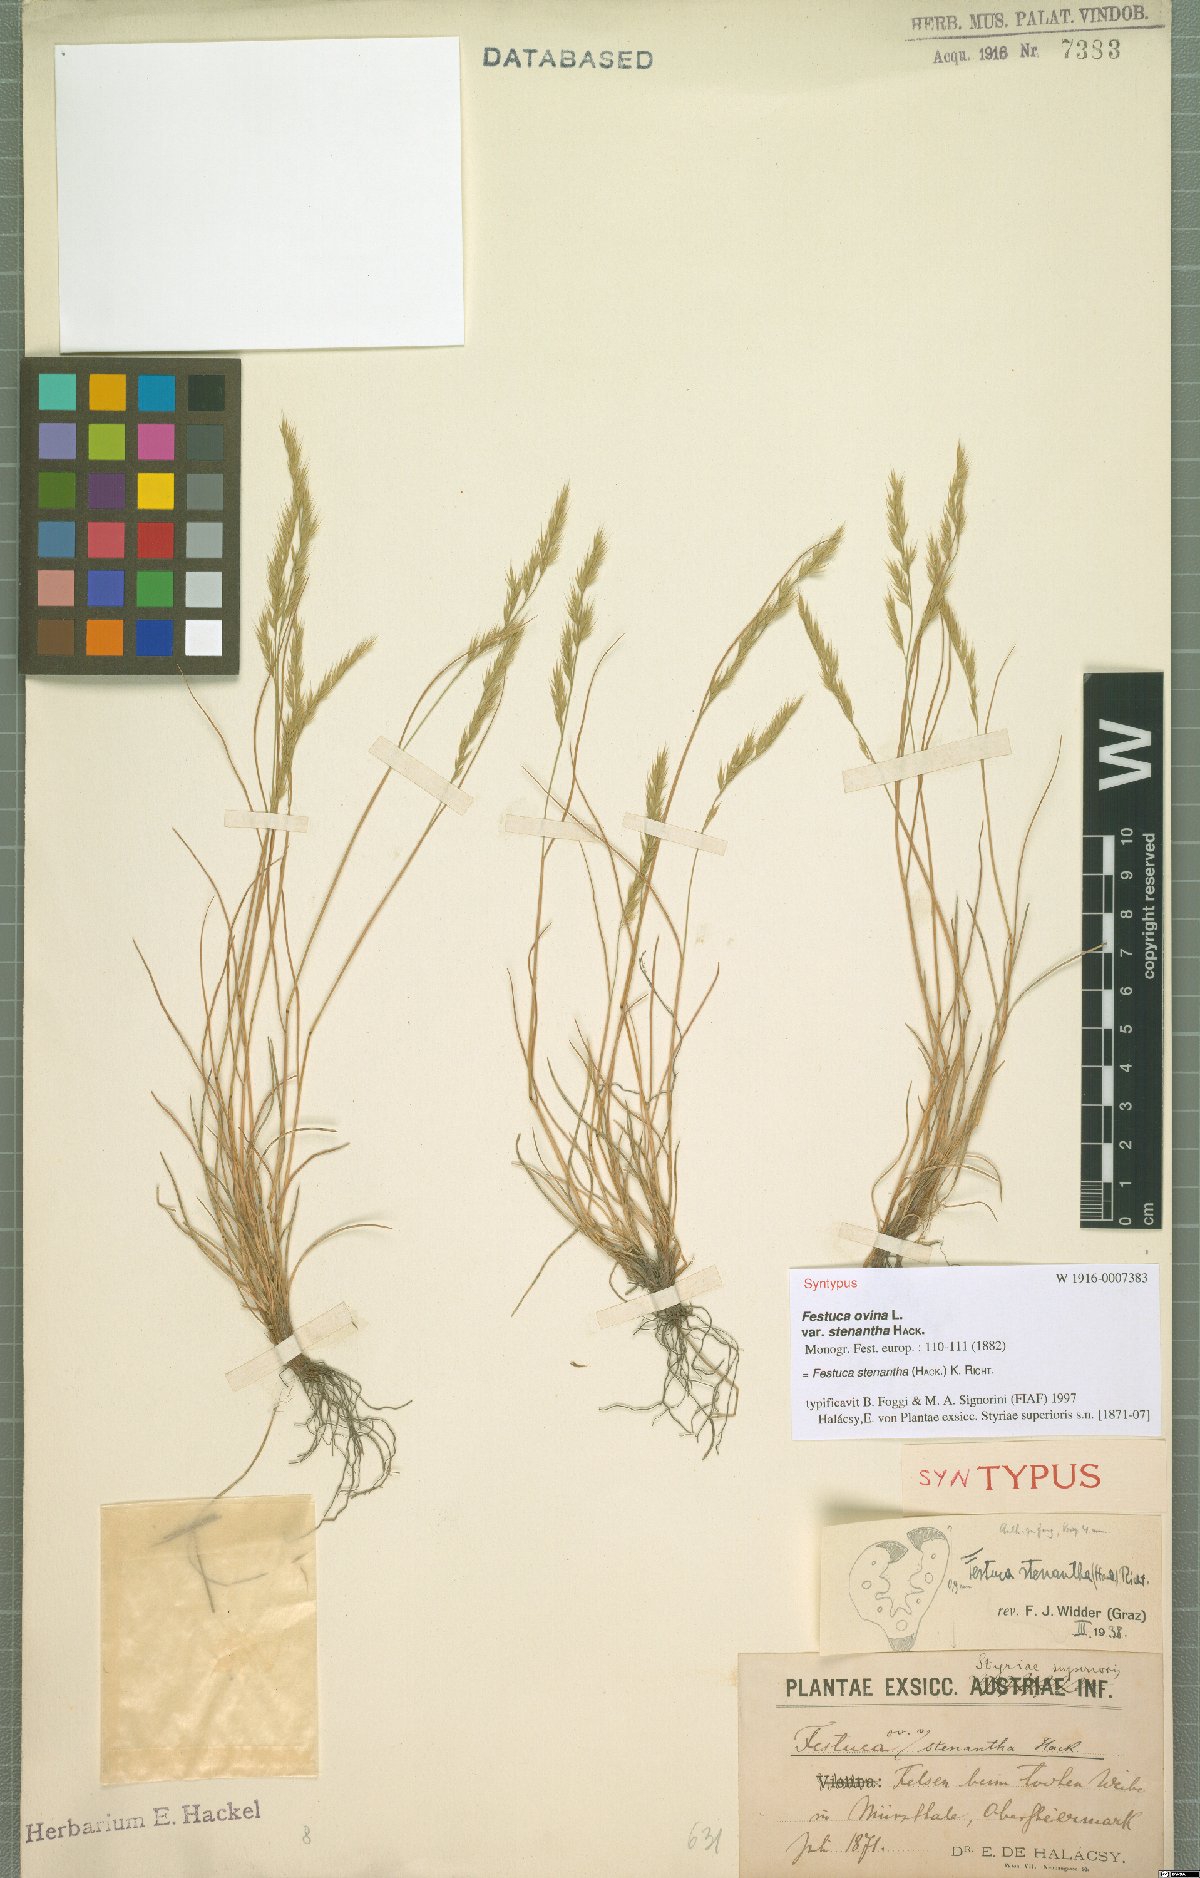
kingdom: Plantae
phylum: Tracheophyta
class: Liliopsida
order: Poales
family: Poaceae
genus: Festuca
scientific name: Festuca stenantha
